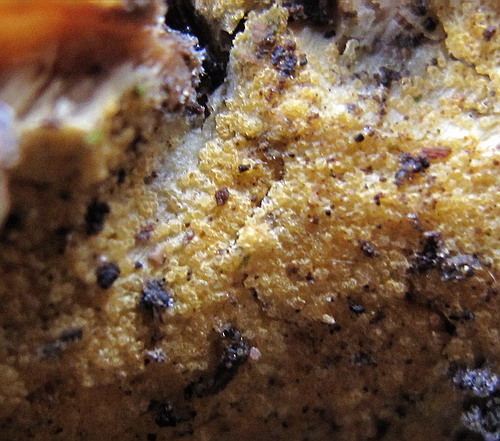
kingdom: Fungi
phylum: Ascomycota
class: Sordariomycetes
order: Hypocreales
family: Hypocreaceae
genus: Protocrea
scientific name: Protocrea farinosa
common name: krystalpore-kødkerne
